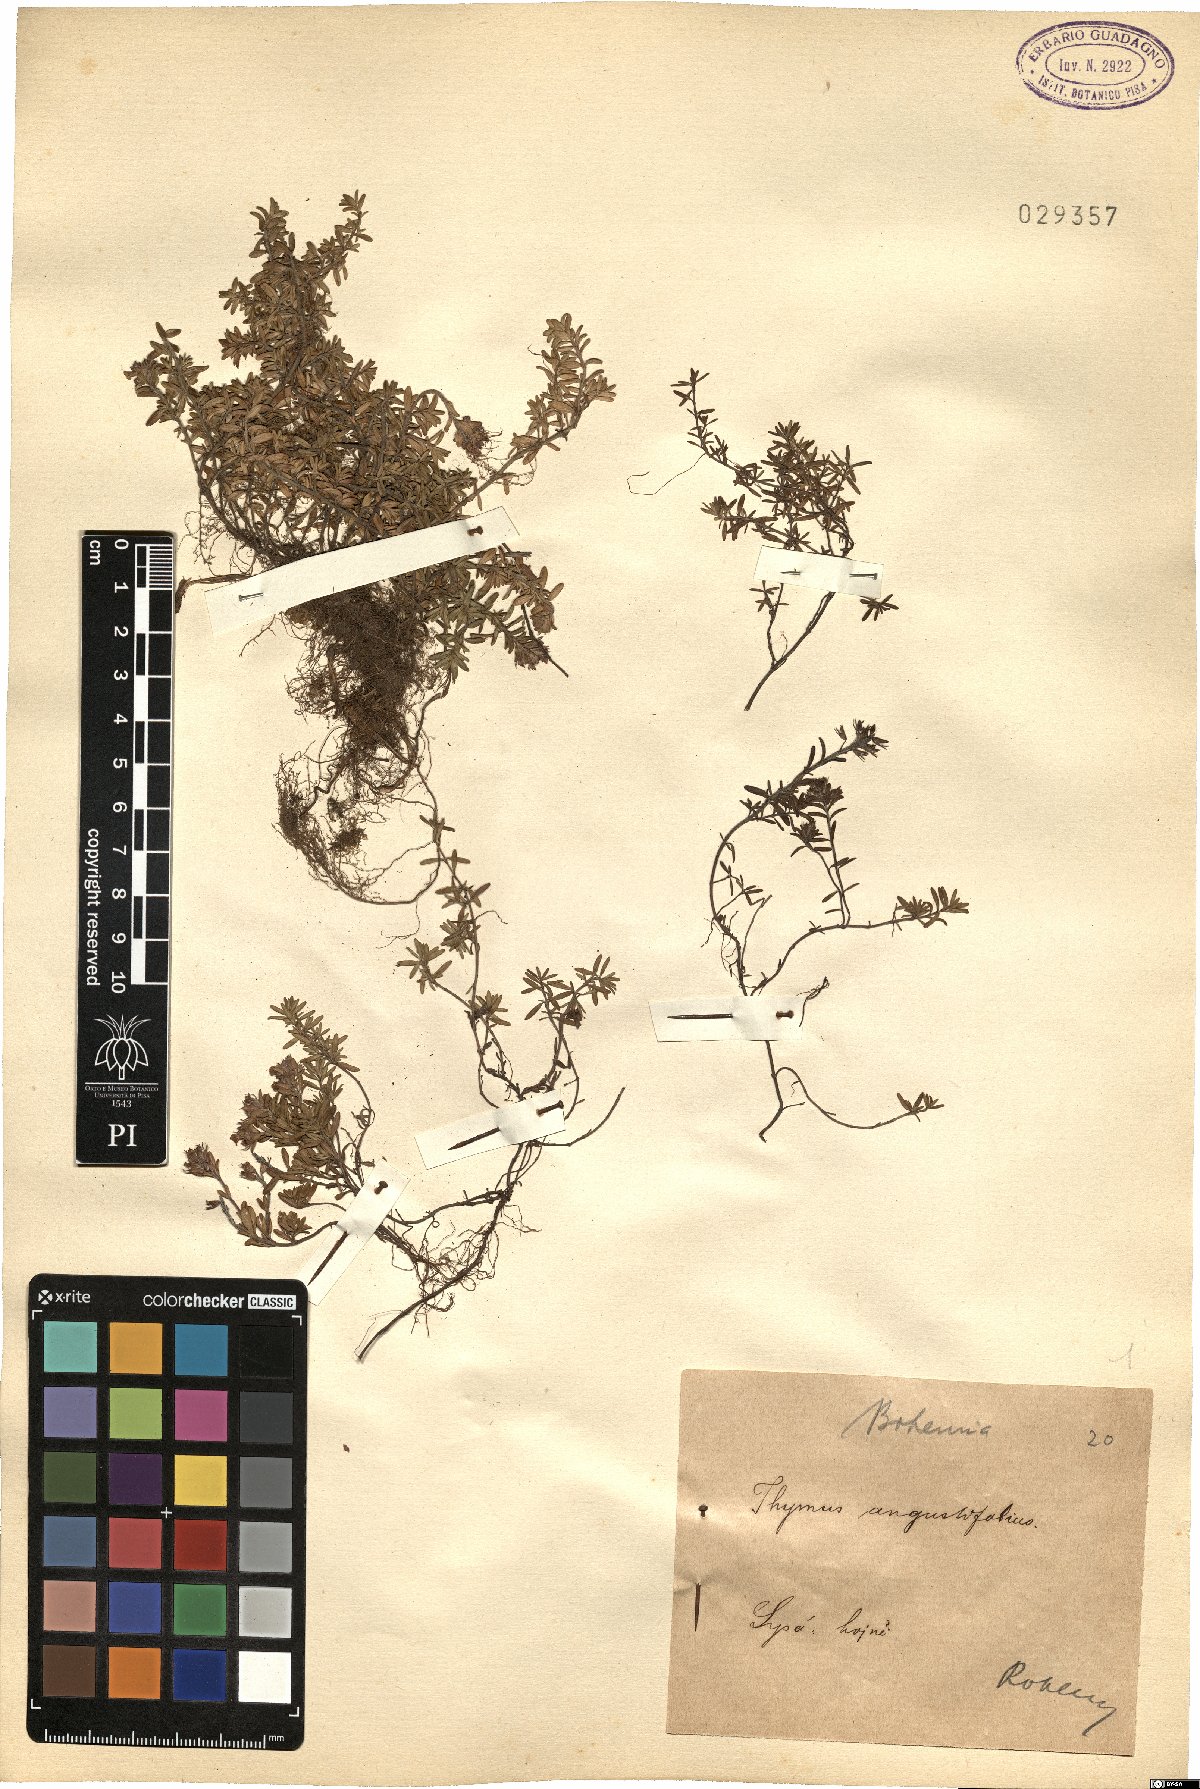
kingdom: Plantae
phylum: Tracheophyta
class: Magnoliopsida
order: Lamiales
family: Lamiaceae
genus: Thymus
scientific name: Thymus serpyllum
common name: Breckland thyme
